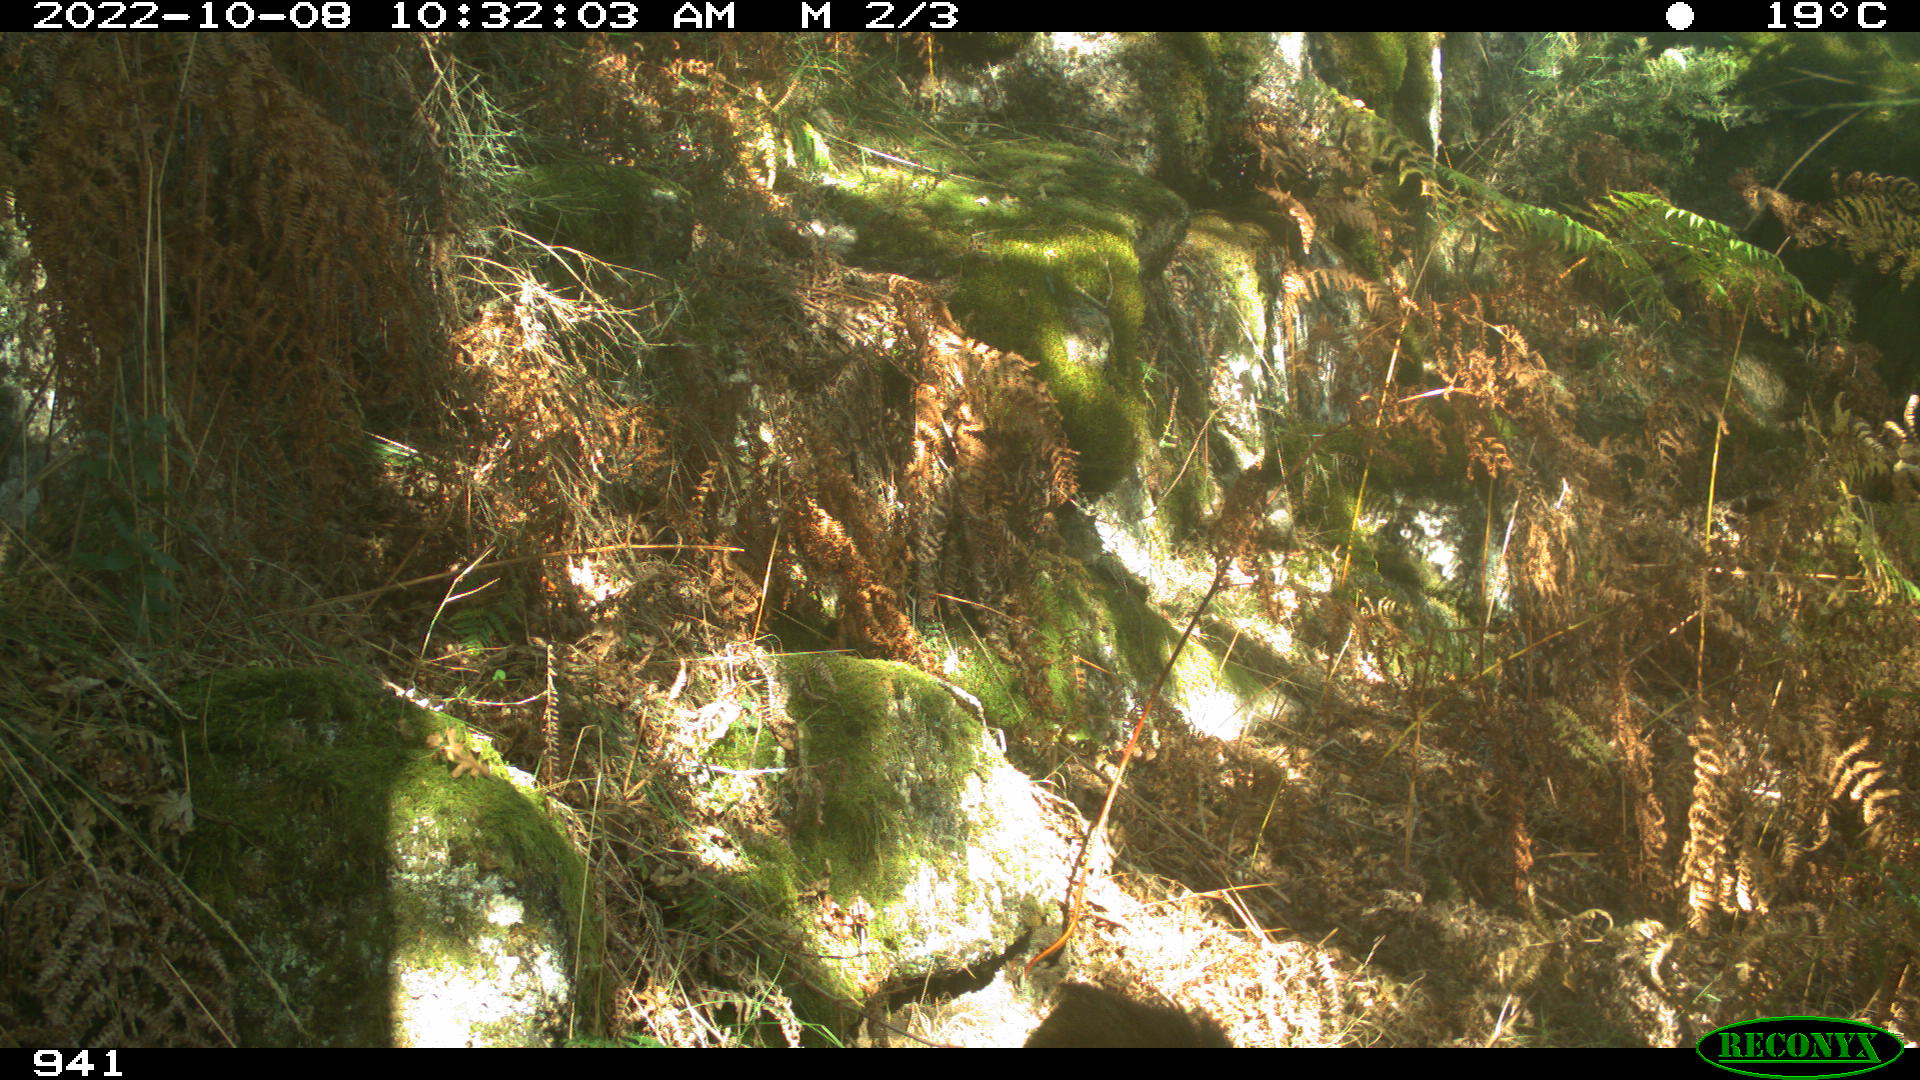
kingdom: Animalia
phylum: Chordata
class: Mammalia
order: Artiodactyla
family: Suidae
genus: Sus
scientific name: Sus scrofa
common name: Wild boar
